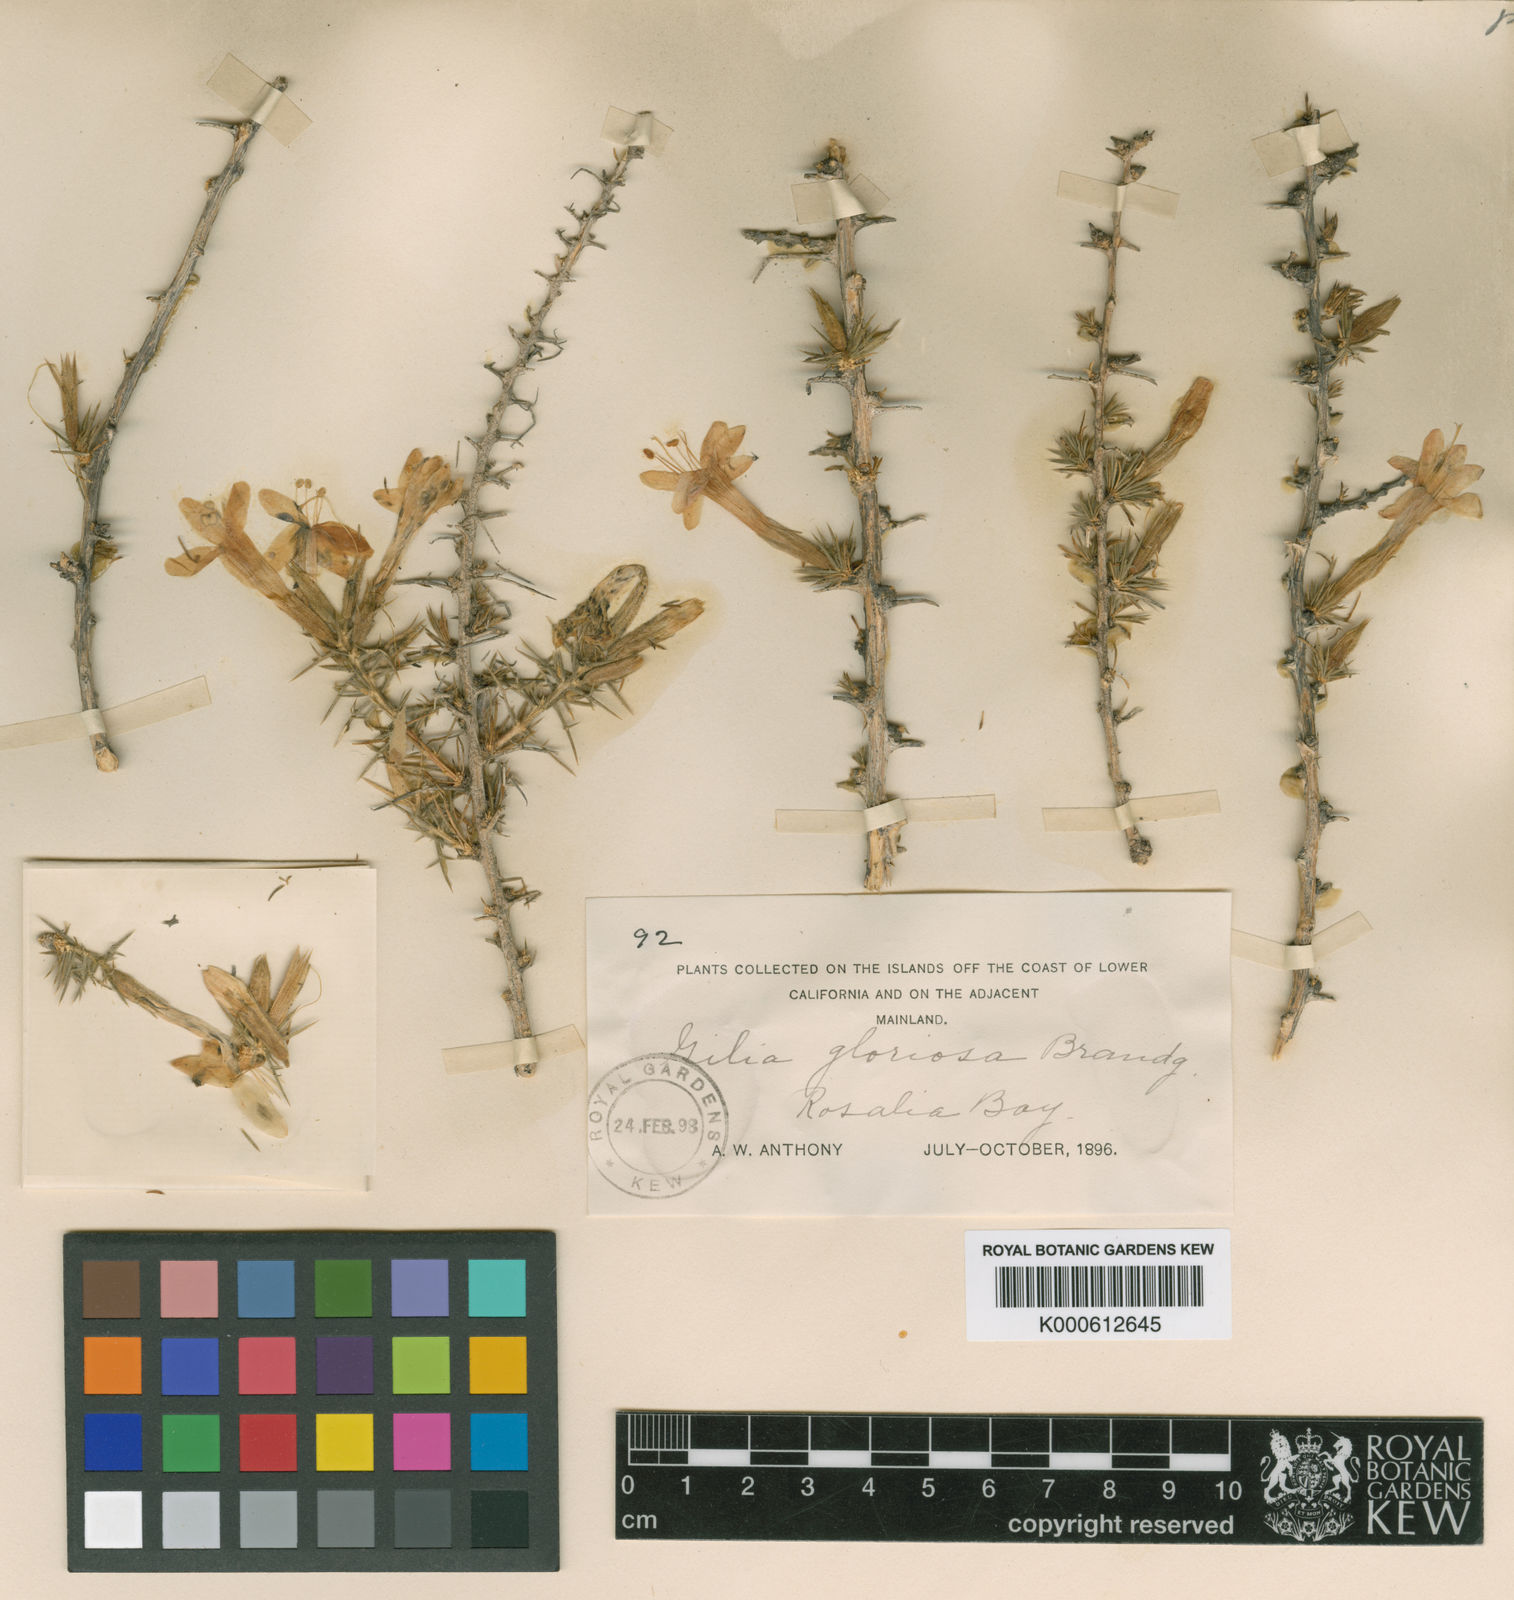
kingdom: Plantae
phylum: Tracheophyta
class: Magnoliopsida
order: Ericales
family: Polemoniaceae
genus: Acanthogilia
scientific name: Acanthogilia gloriosa
